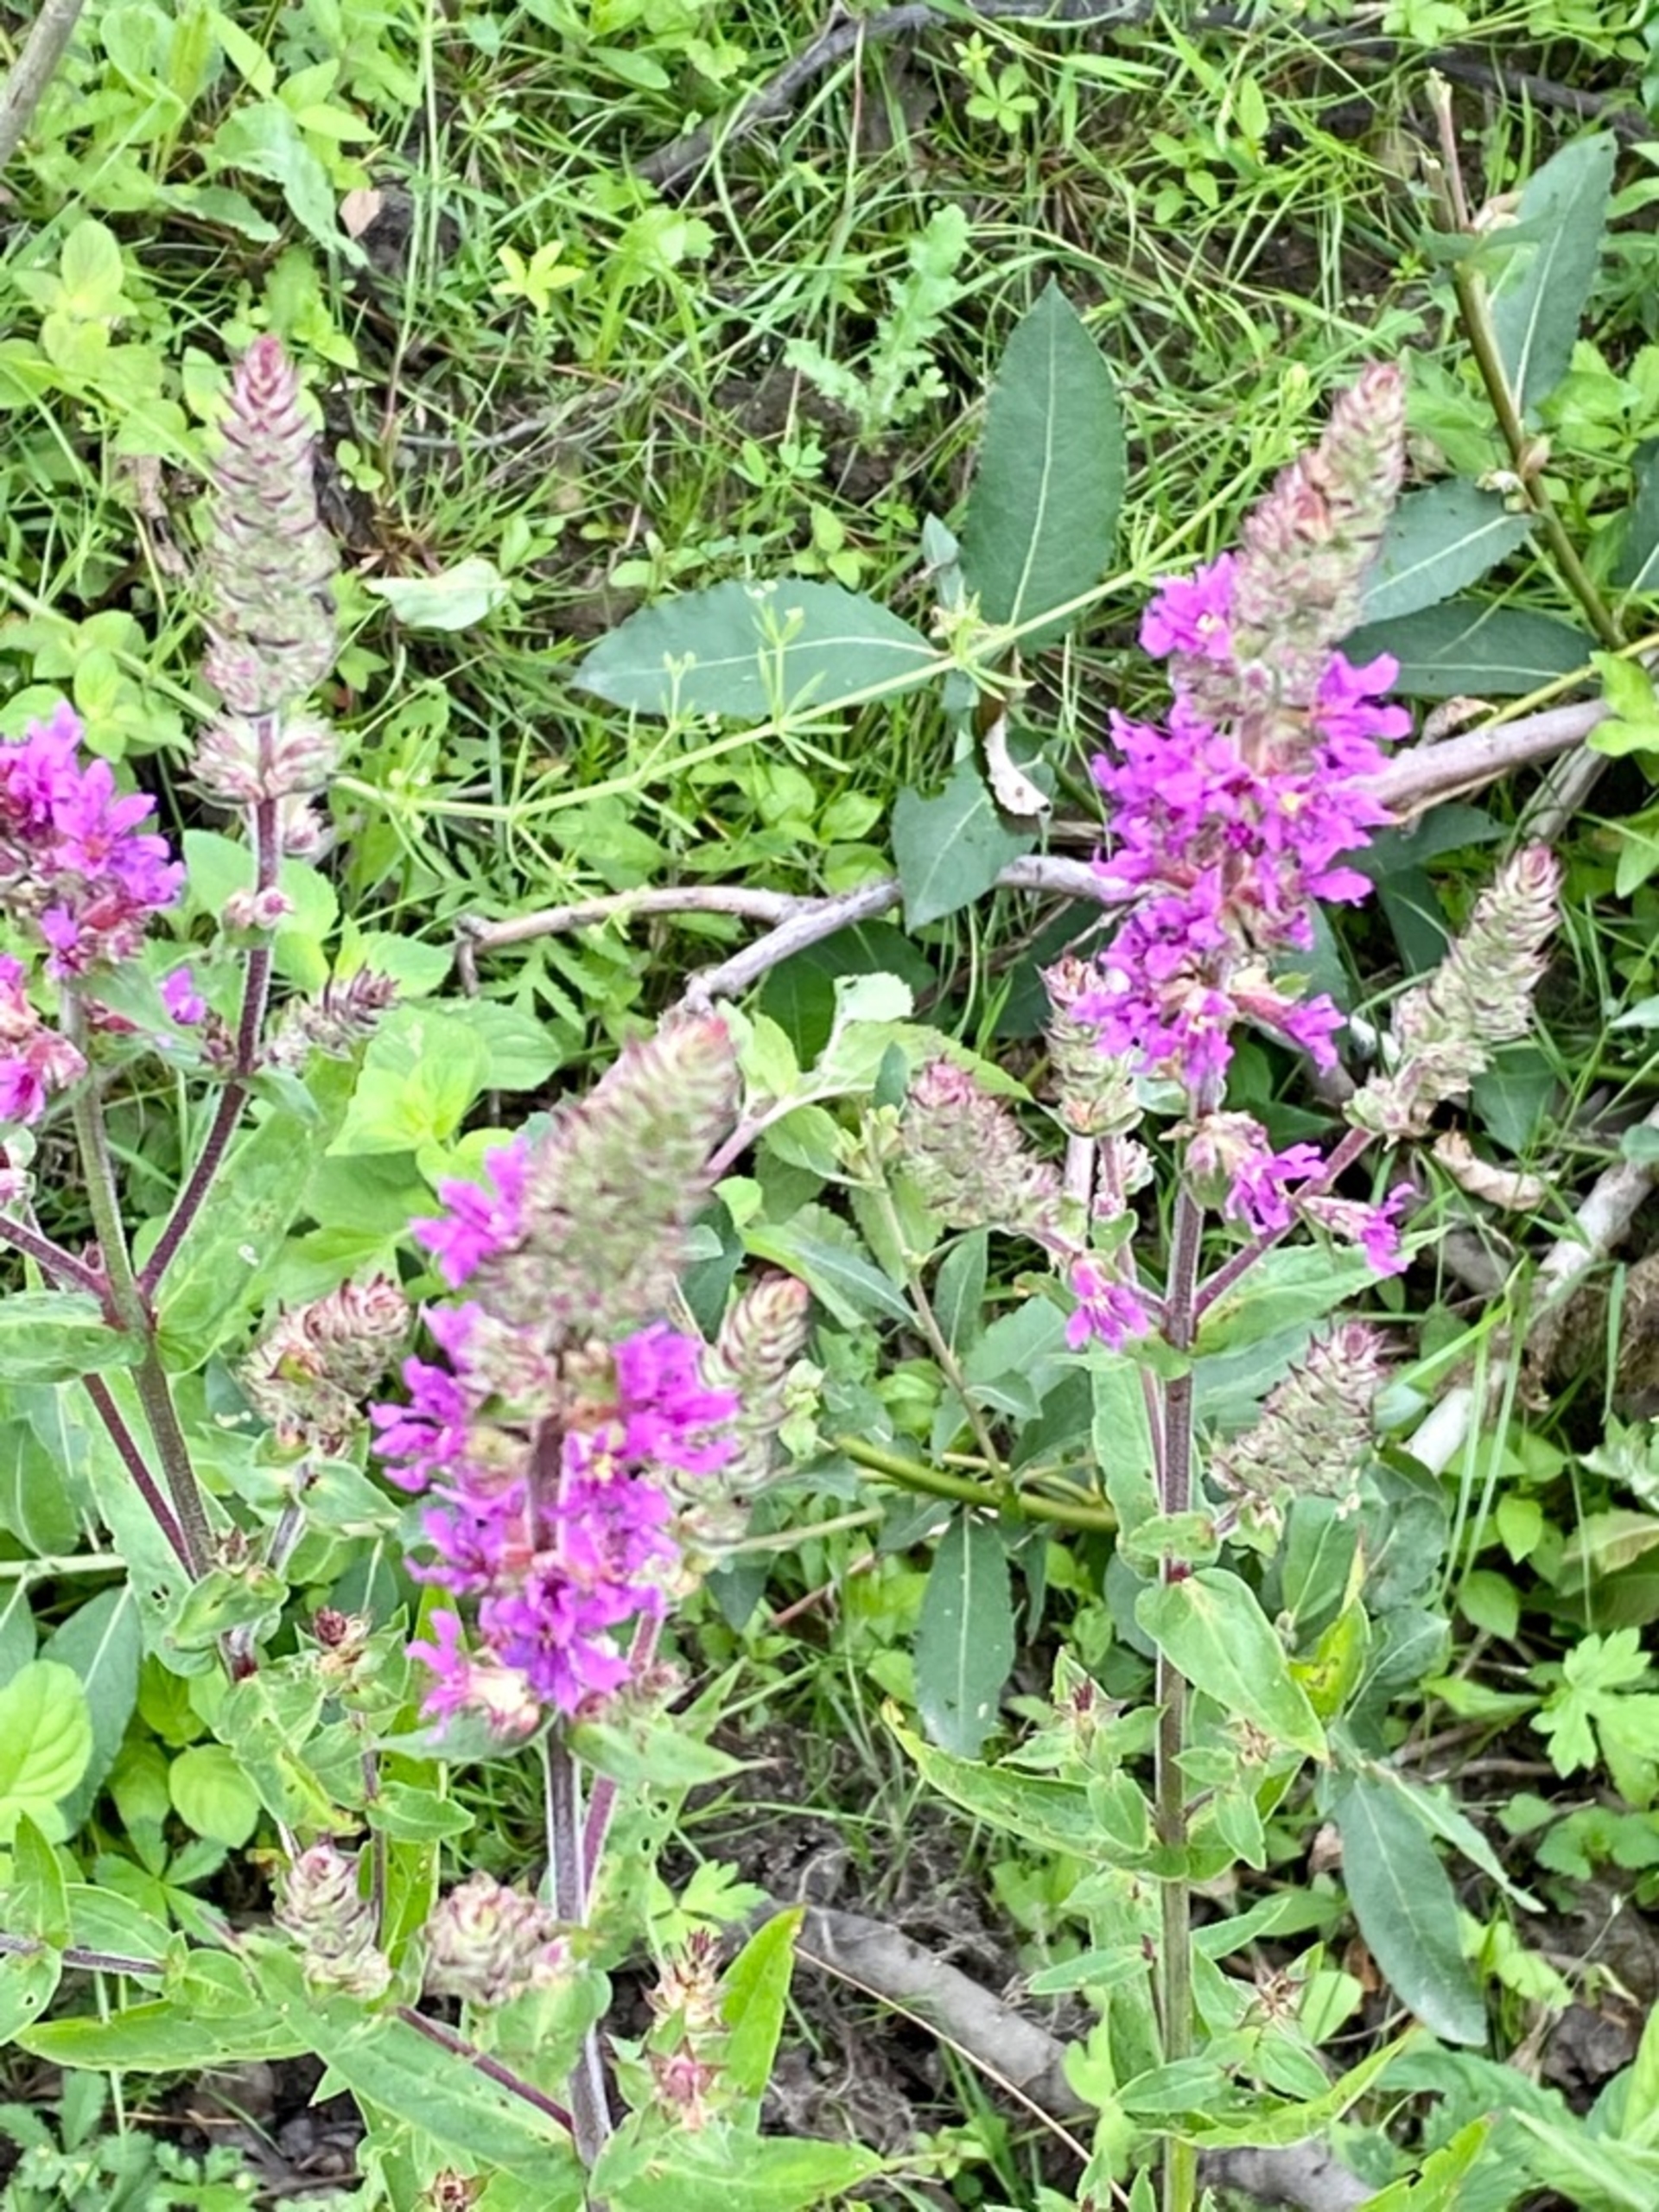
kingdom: Plantae
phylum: Tracheophyta
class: Magnoliopsida
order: Myrtales
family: Lythraceae
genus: Lythrum
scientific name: Lythrum salicaria
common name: Kattehale
